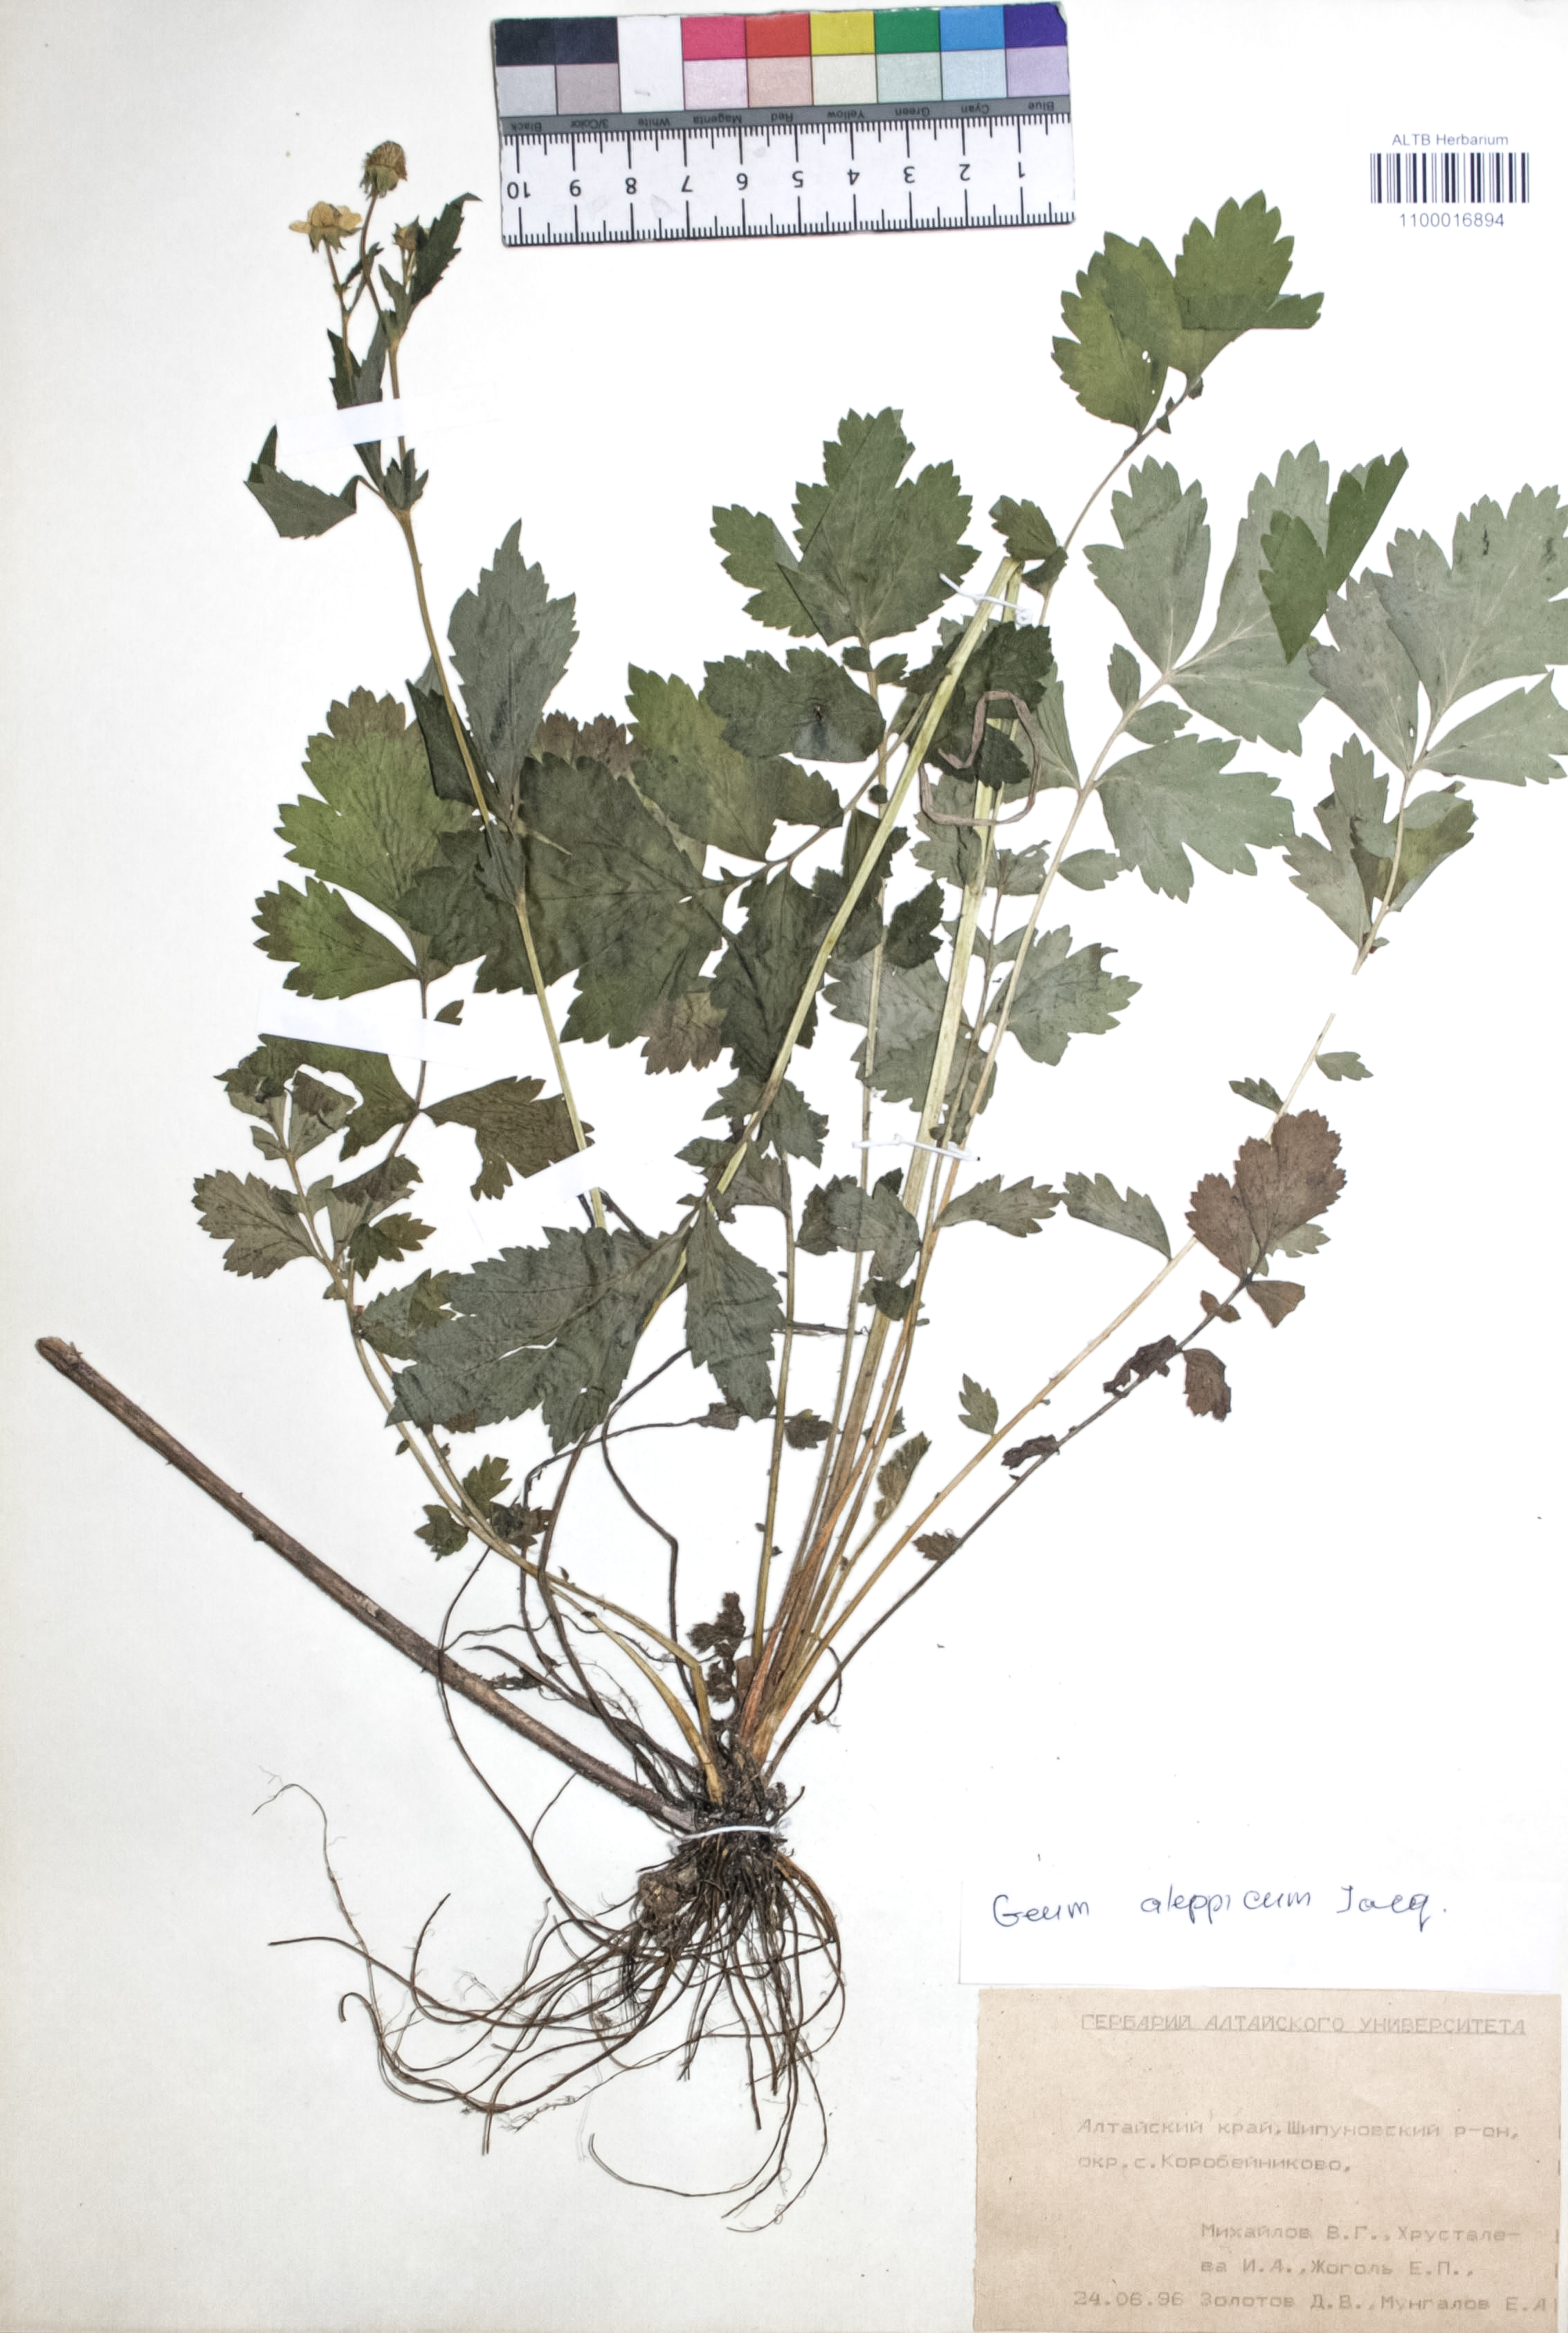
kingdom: Plantae
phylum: Tracheophyta
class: Magnoliopsida
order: Rosales
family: Rosaceae
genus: Geum
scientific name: Geum aleppicum
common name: Yellow avens
